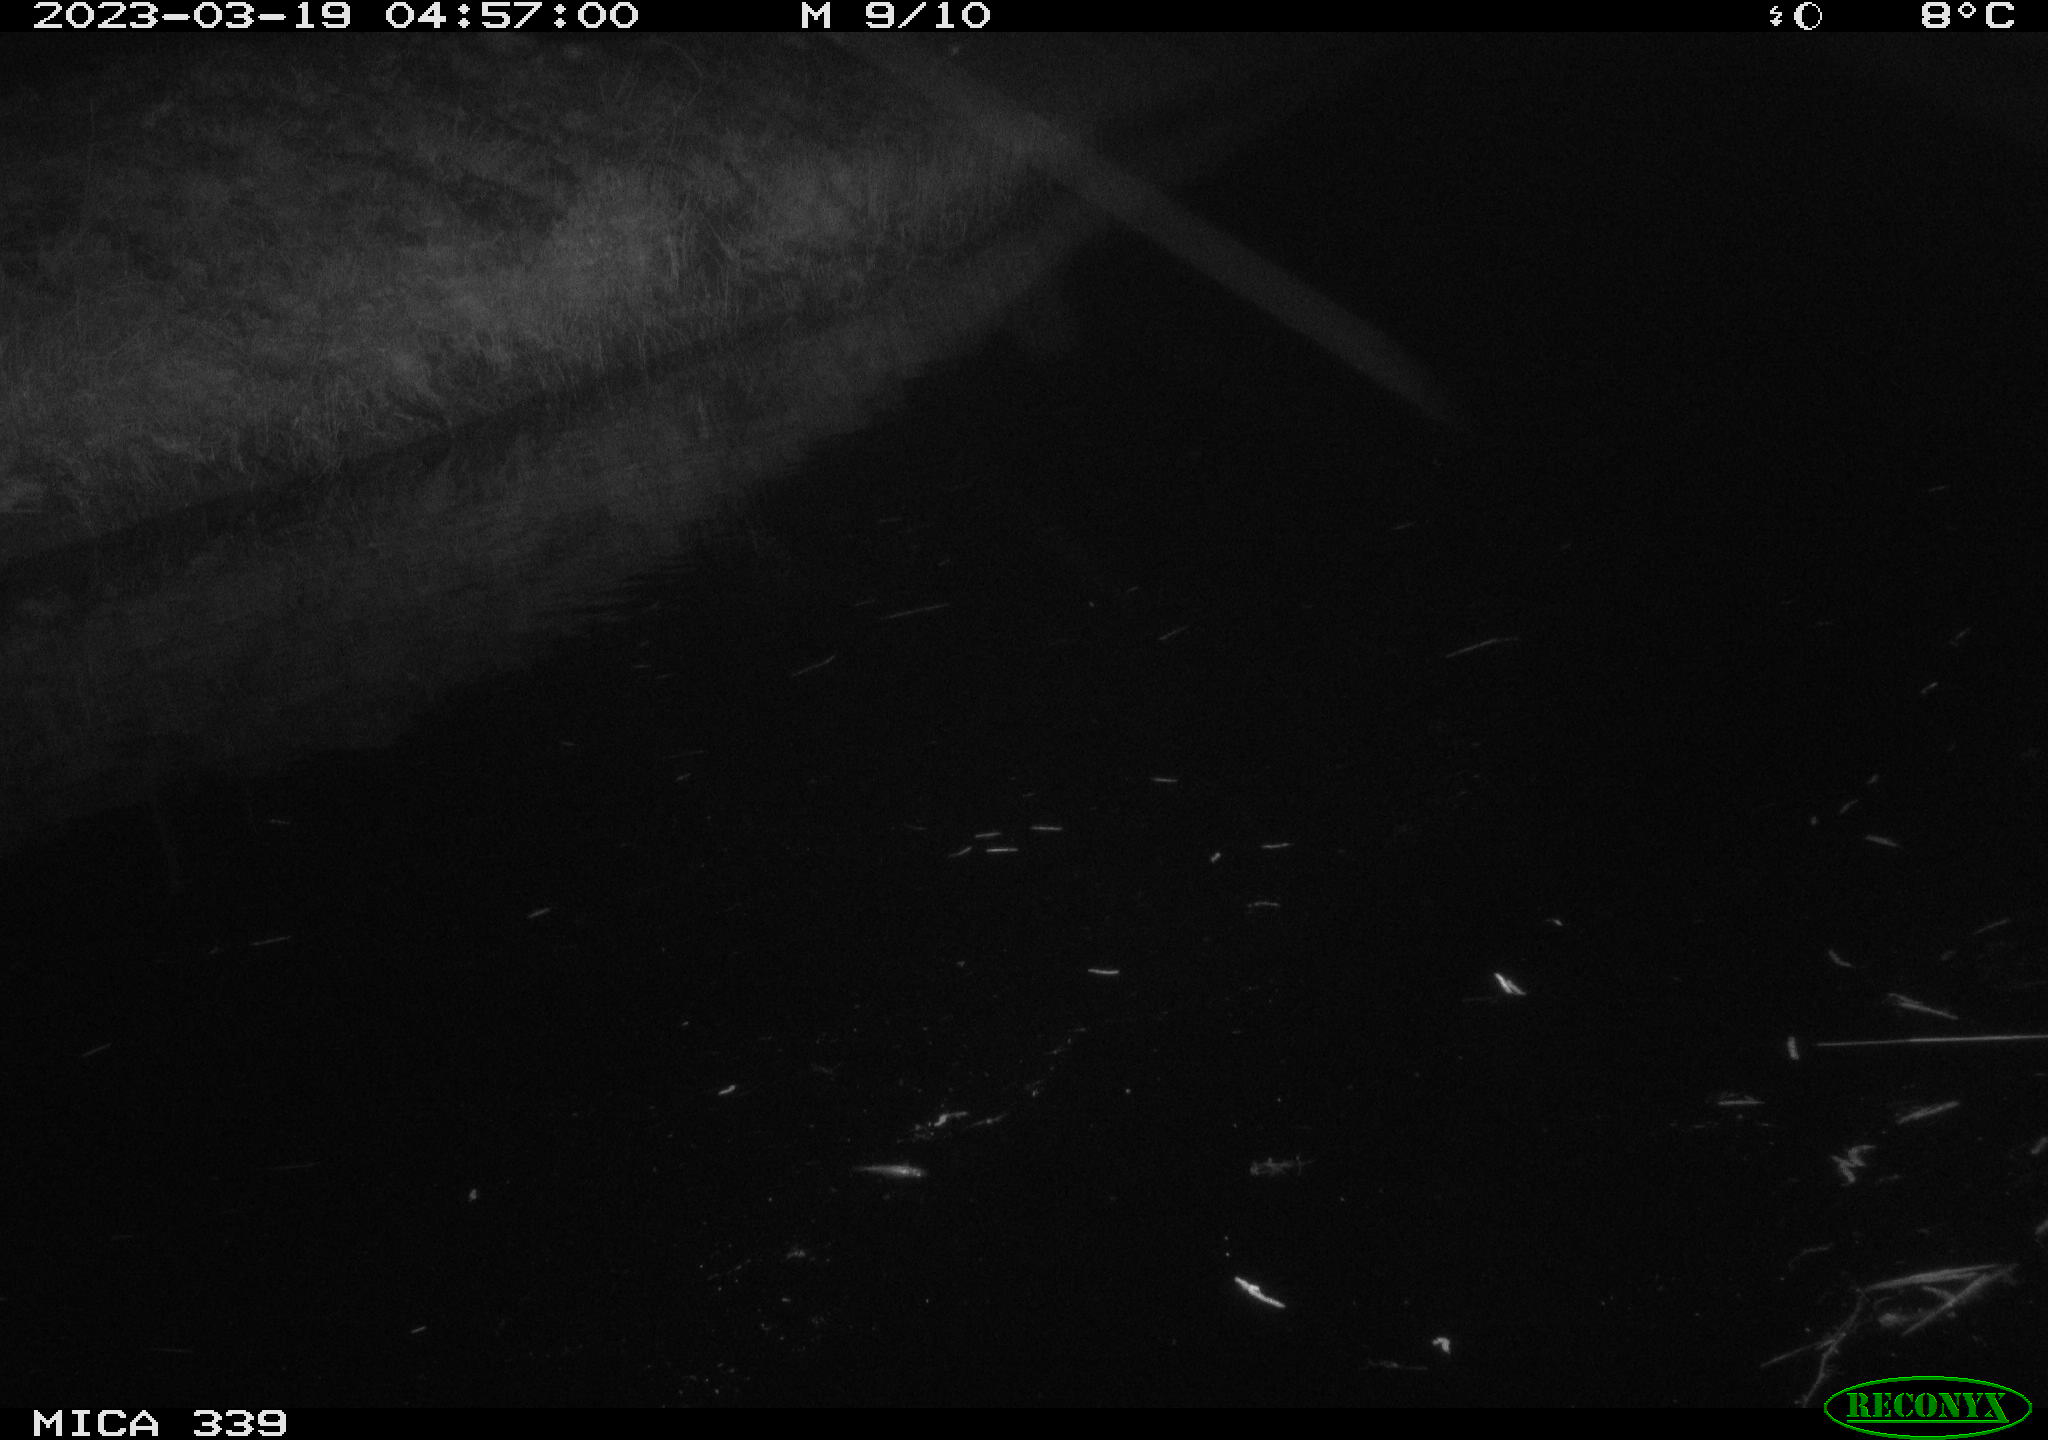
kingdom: Animalia
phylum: Chordata
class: Aves
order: Pelecaniformes
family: Ardeidae
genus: Ardea
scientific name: Ardea cinerea
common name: Grey heron
